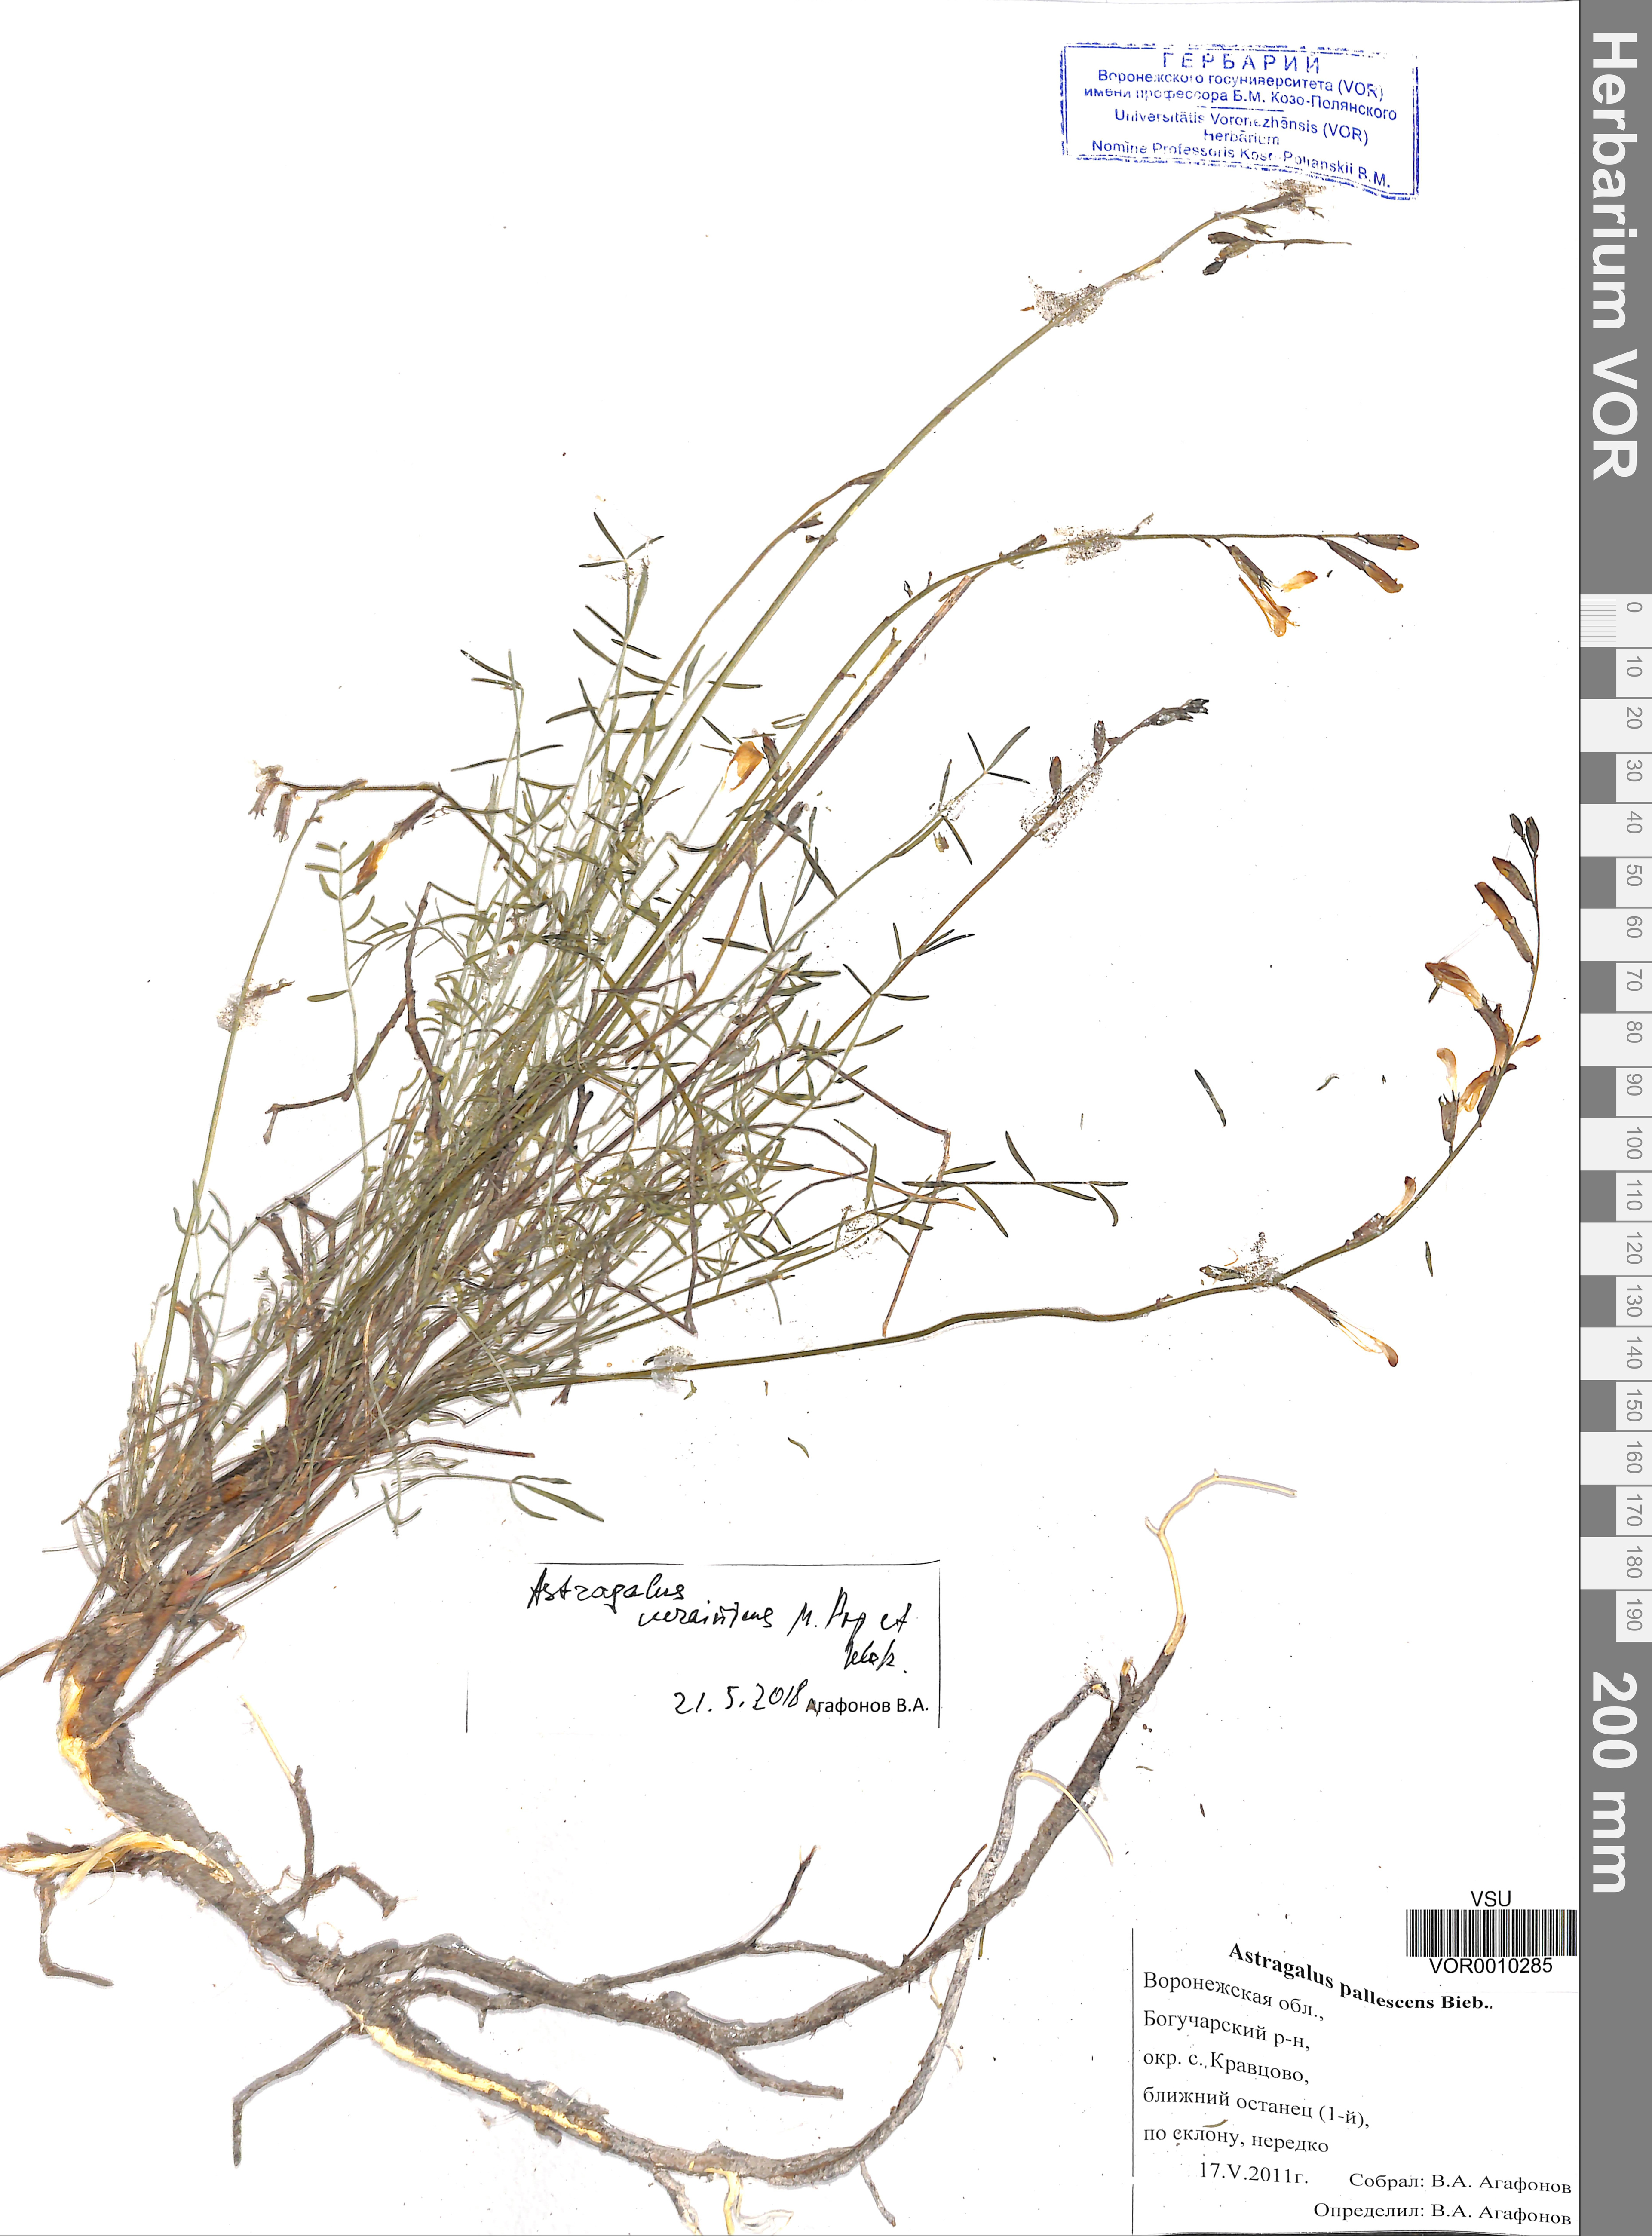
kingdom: Plantae
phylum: Tracheophyta
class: Magnoliopsida
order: Fabales
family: Fabaceae
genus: Astragalus
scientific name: Astragalus ucrainicus
